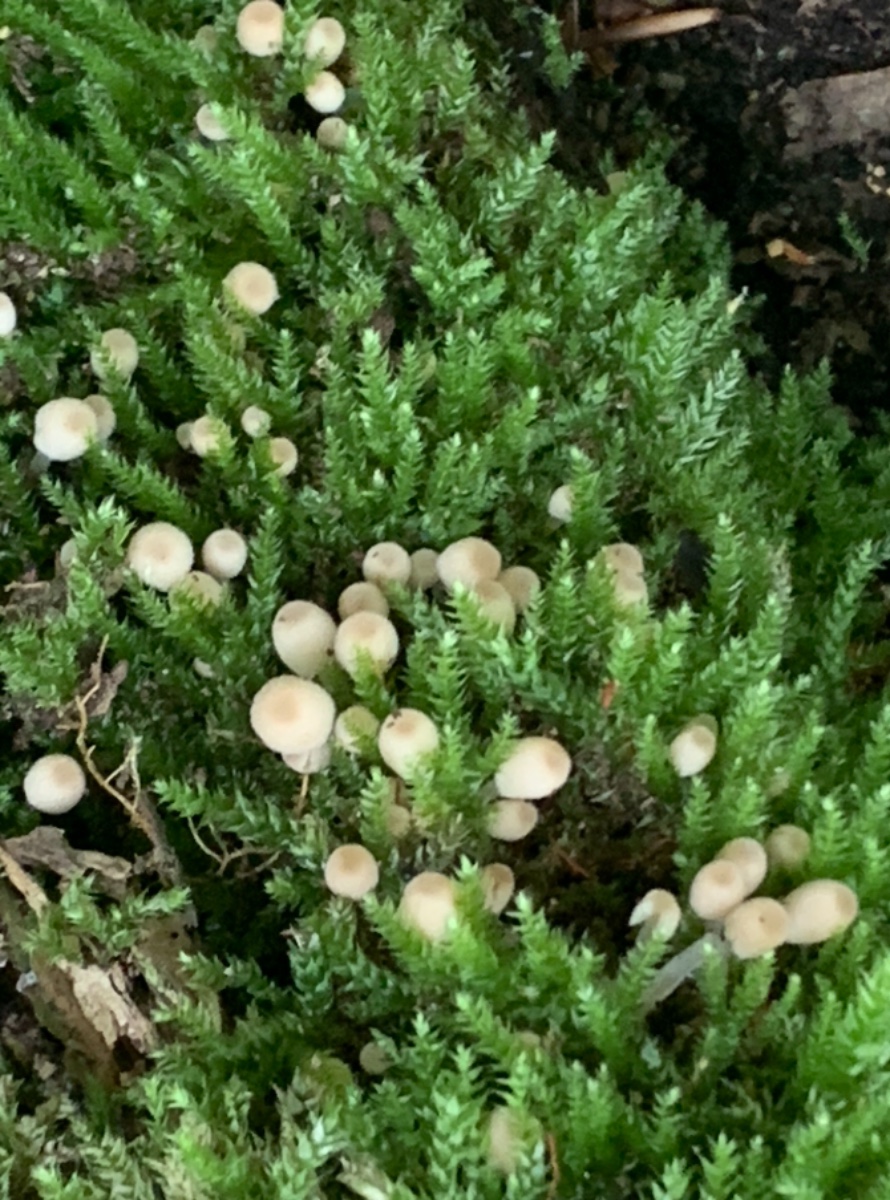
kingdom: Fungi
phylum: Basidiomycota
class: Agaricomycetes
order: Agaricales
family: Psathyrellaceae
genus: Coprinellus
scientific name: Coprinellus disseminatus
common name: bredsået blækhat
